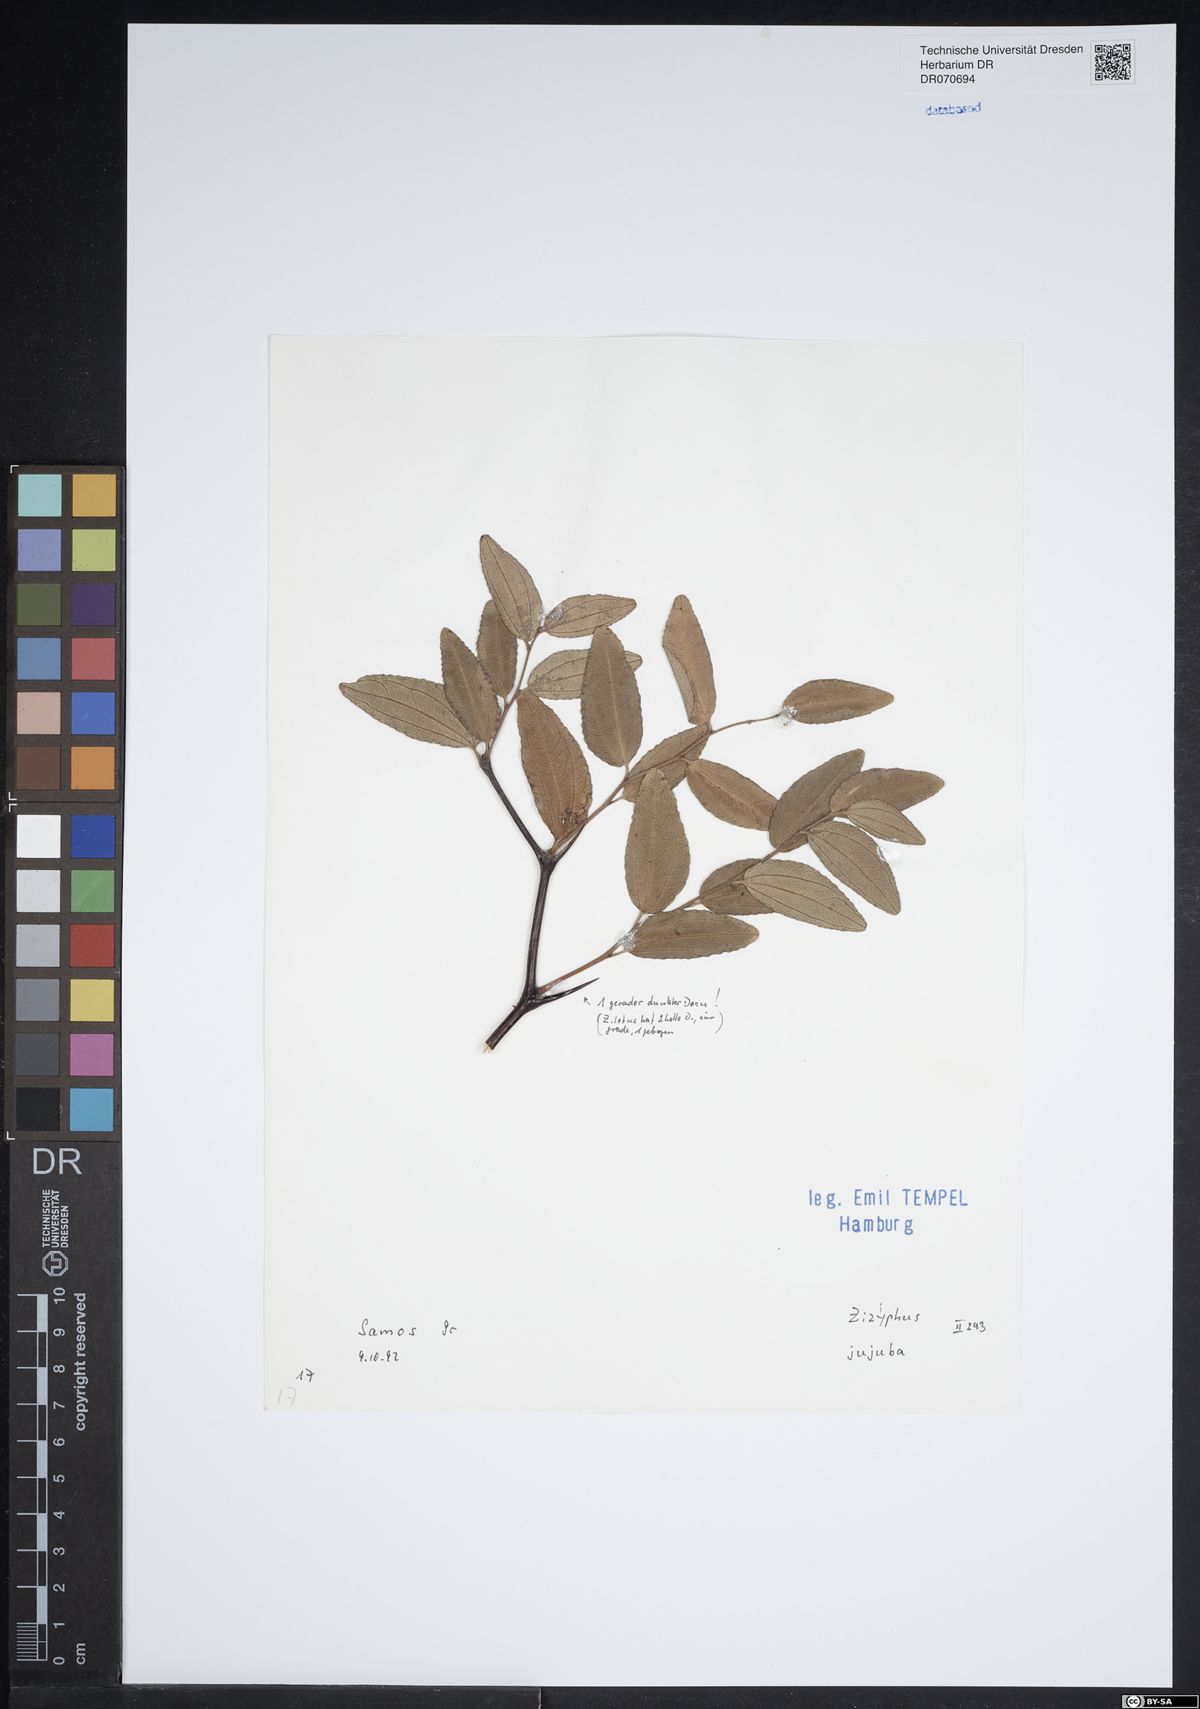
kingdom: Plantae
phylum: Tracheophyta
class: Magnoliopsida
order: Rosales
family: Rhamnaceae
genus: Ziziphus
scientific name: Ziziphus jujuba
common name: Jujube red date
